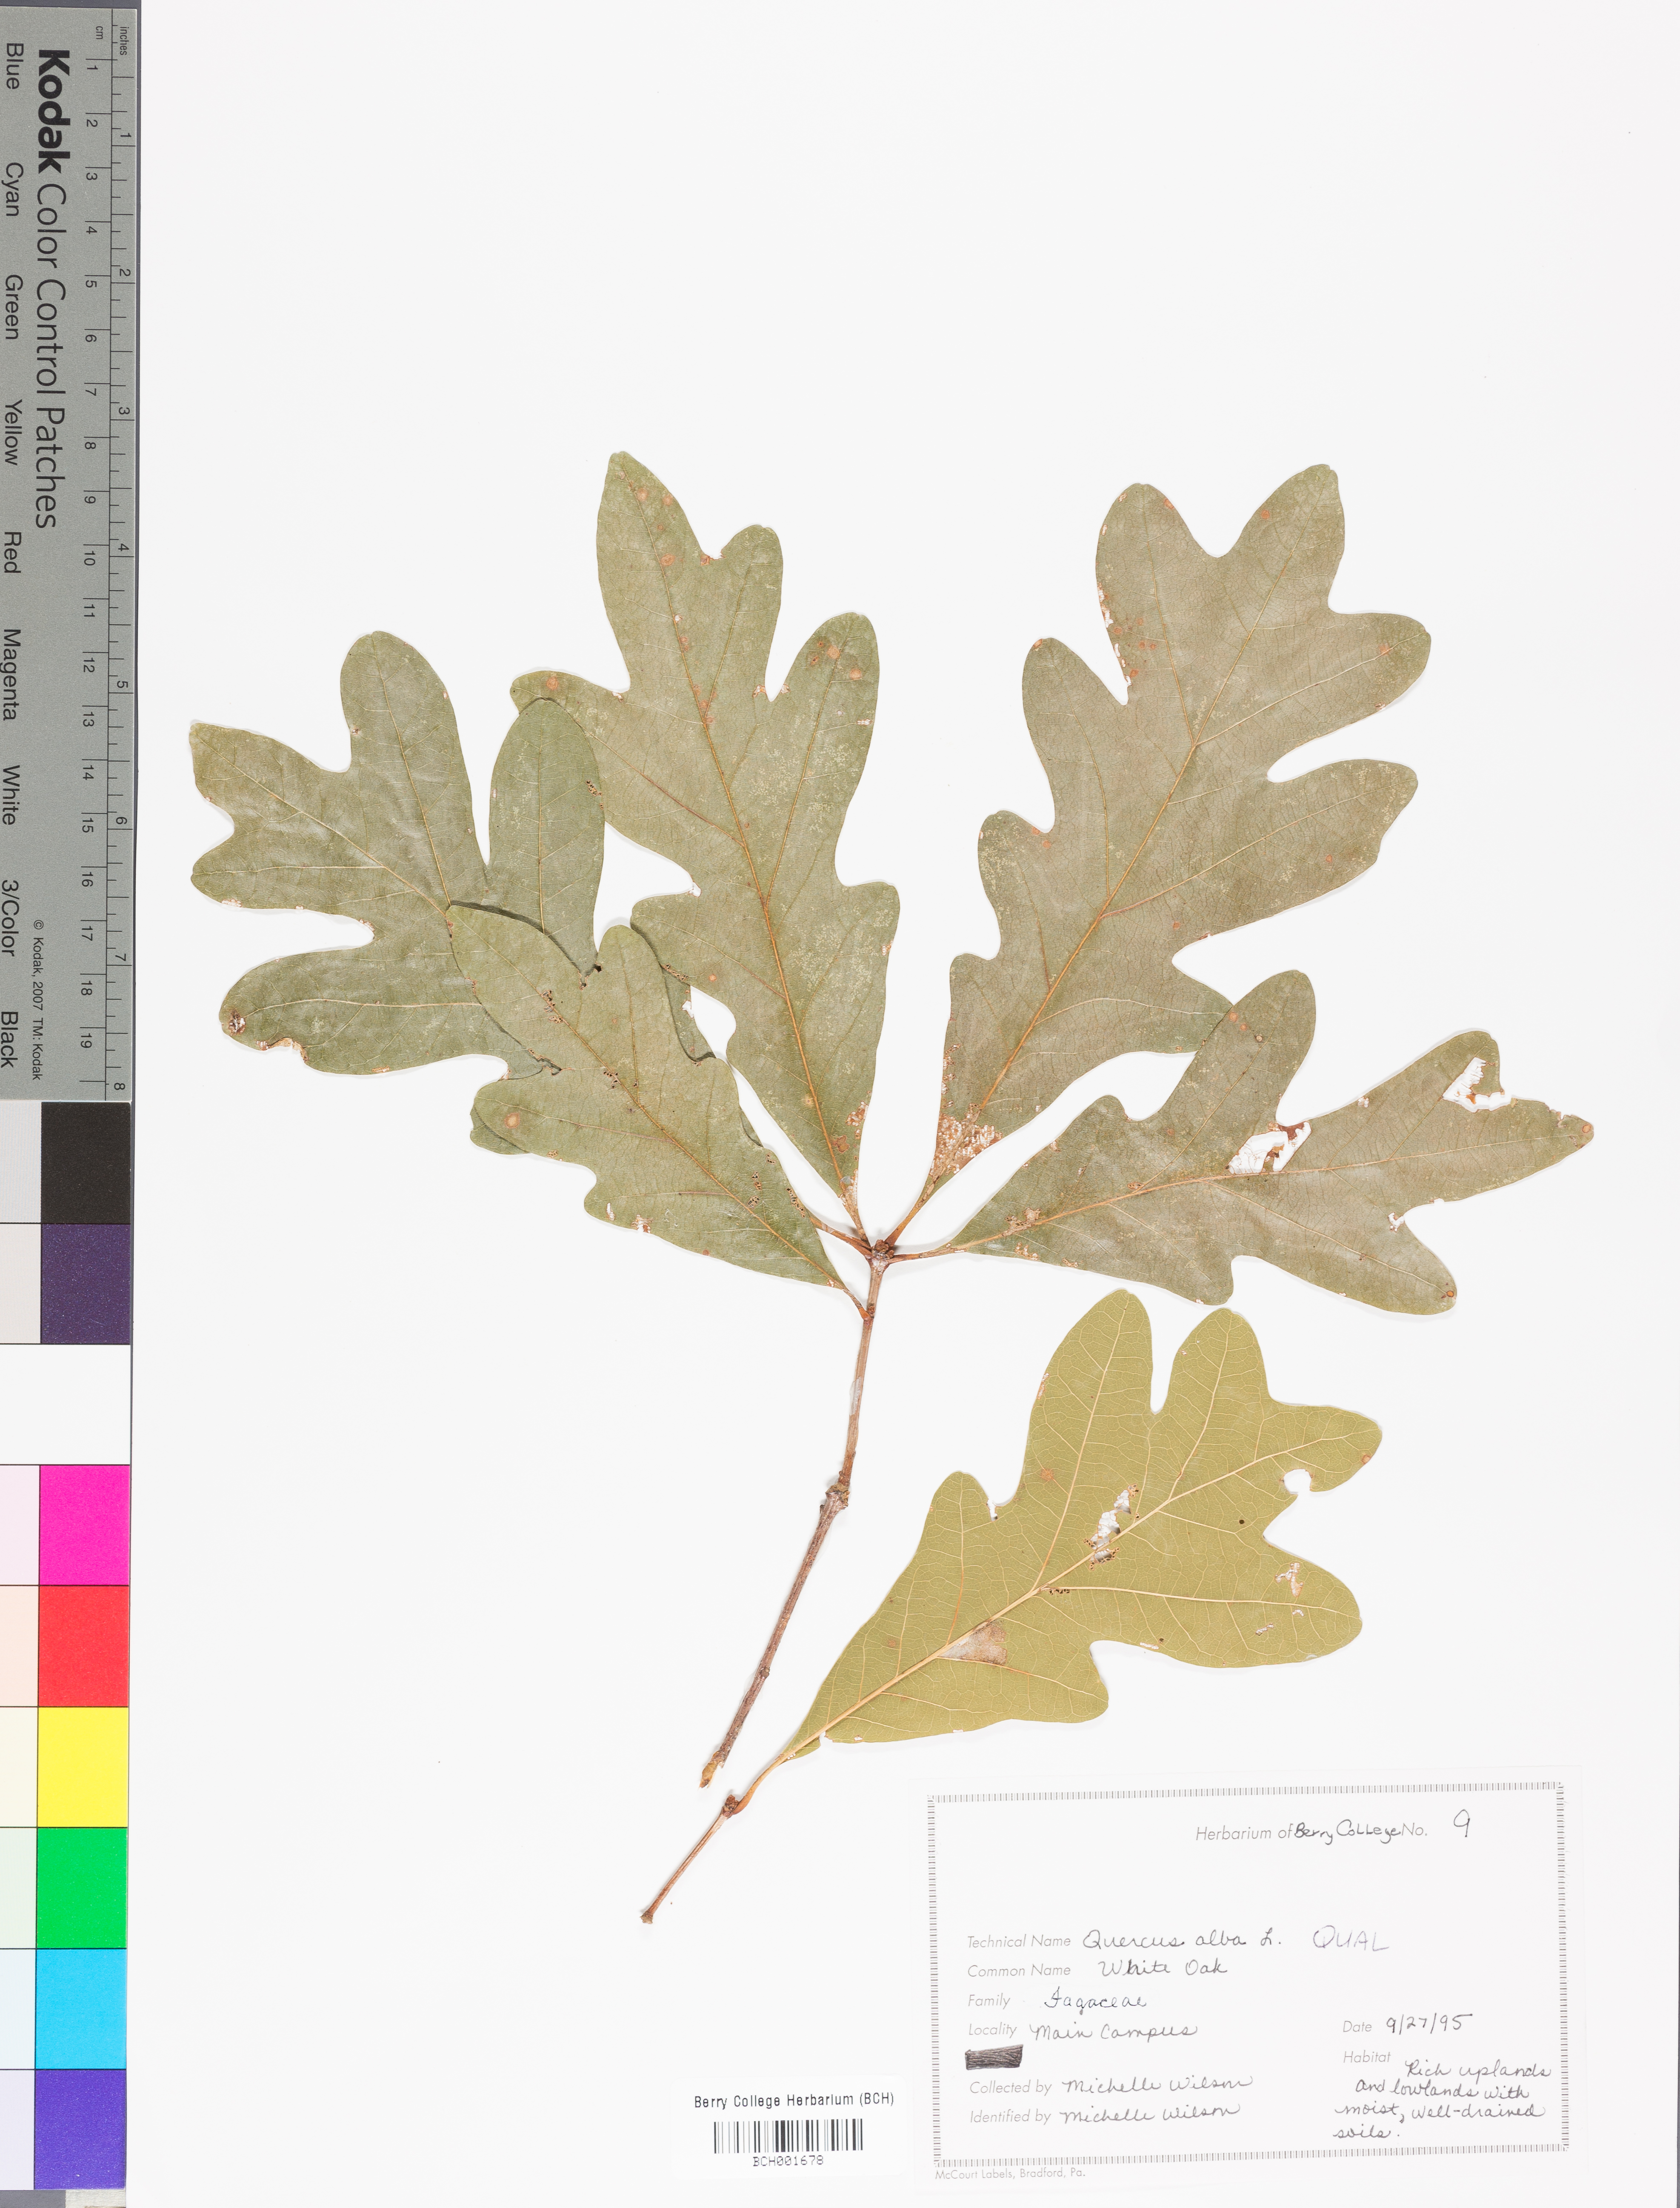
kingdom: Plantae
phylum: Tracheophyta
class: Magnoliopsida
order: Fagales
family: Fagaceae
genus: Quercus
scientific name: Quercus alba
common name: White oak
